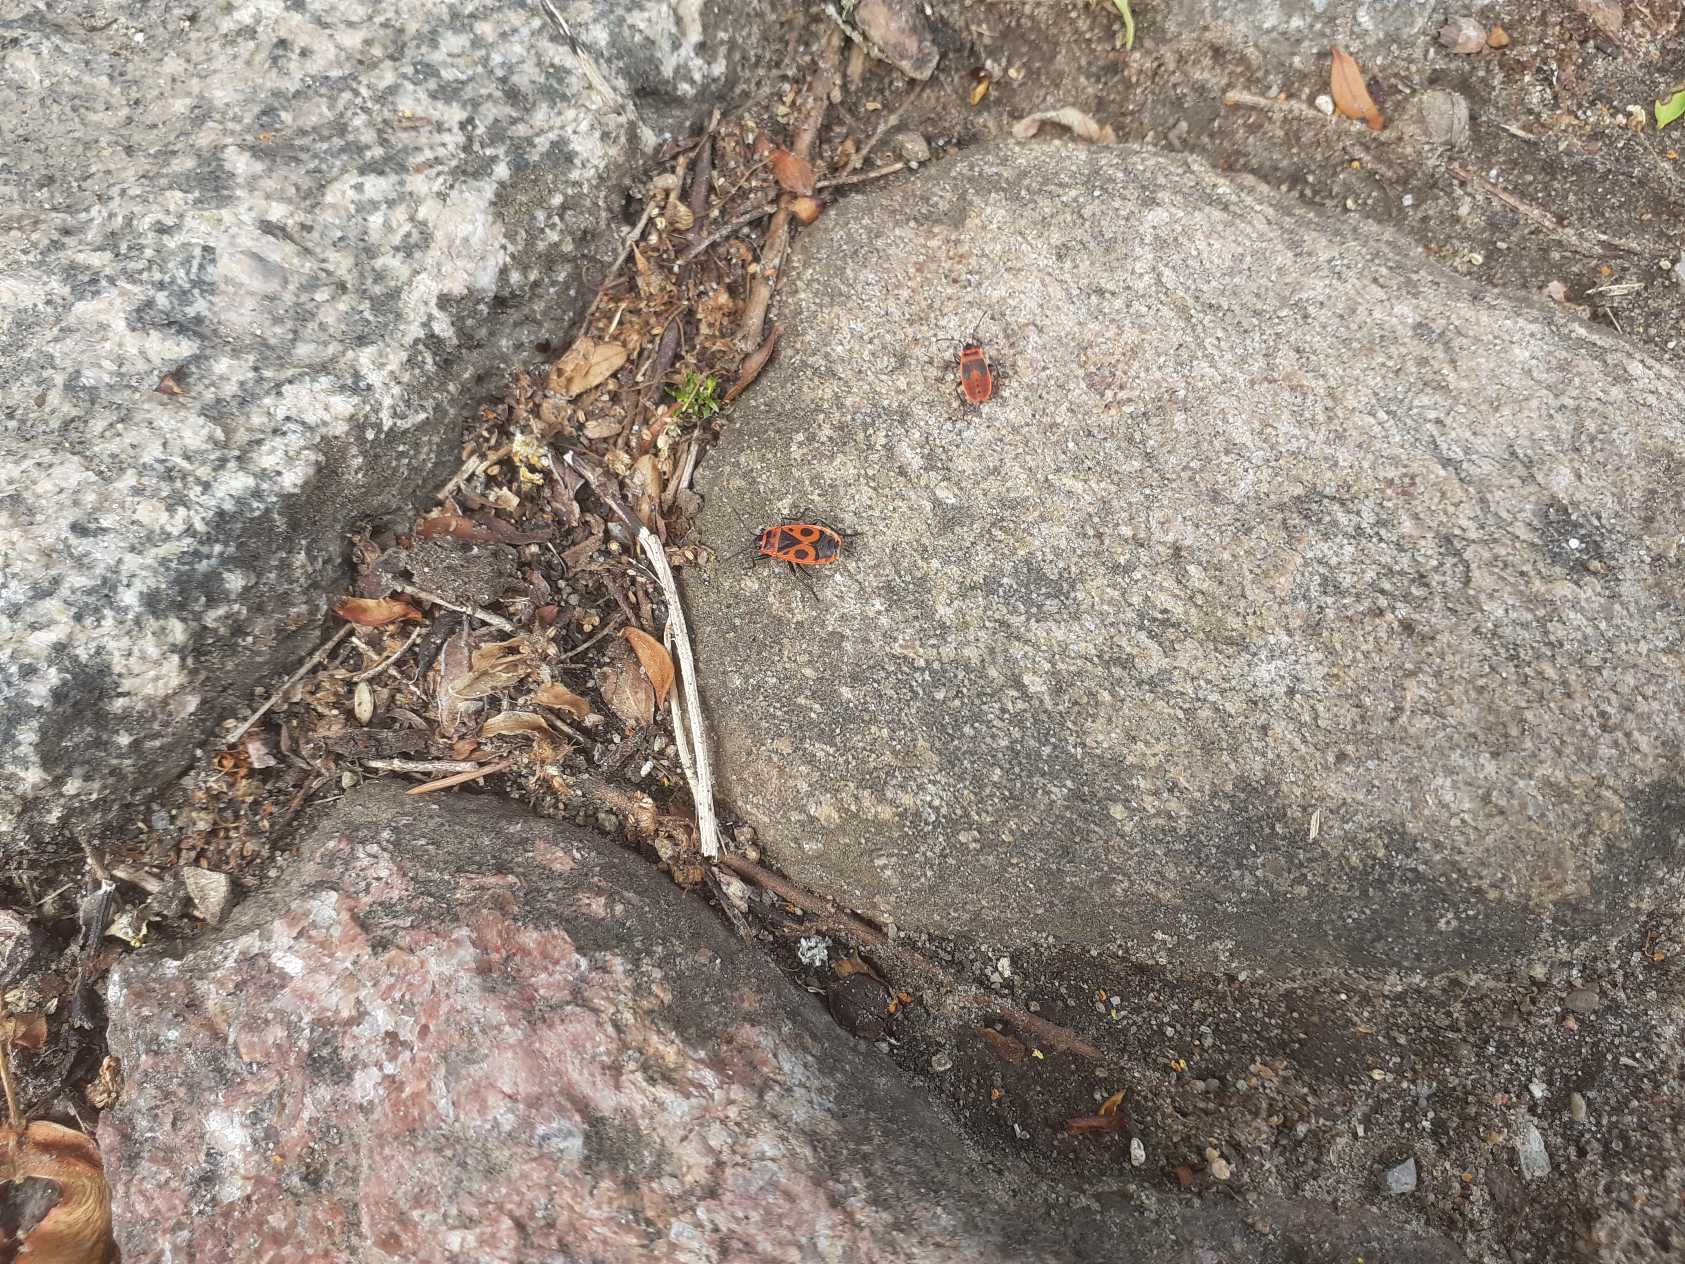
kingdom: Animalia
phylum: Arthropoda
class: Insecta
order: Hemiptera
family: Pyrrhocoridae
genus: Pyrrhocoris
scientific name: Pyrrhocoris apterus
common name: Ildtæge
